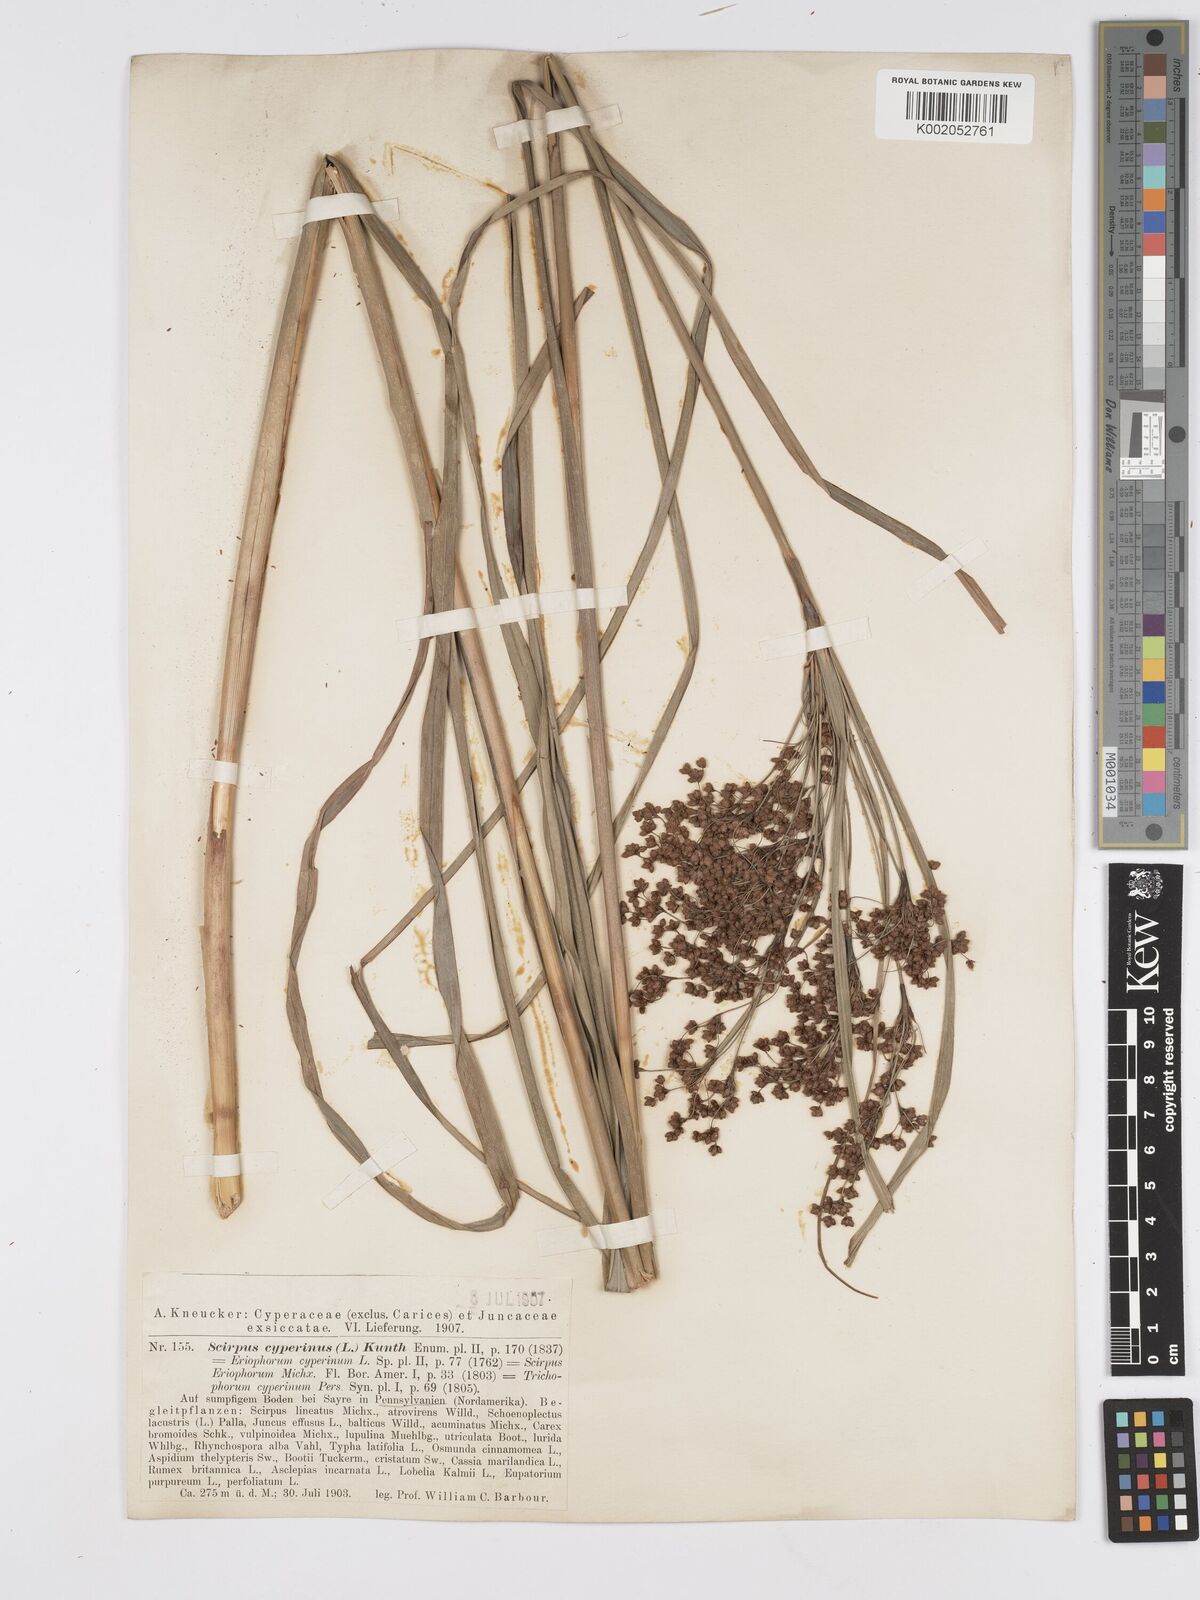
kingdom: Plantae
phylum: Tracheophyta
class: Liliopsida
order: Poales
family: Cyperaceae
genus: Scirpus
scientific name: Scirpus cyperinus
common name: Black-sheathed bulrush
